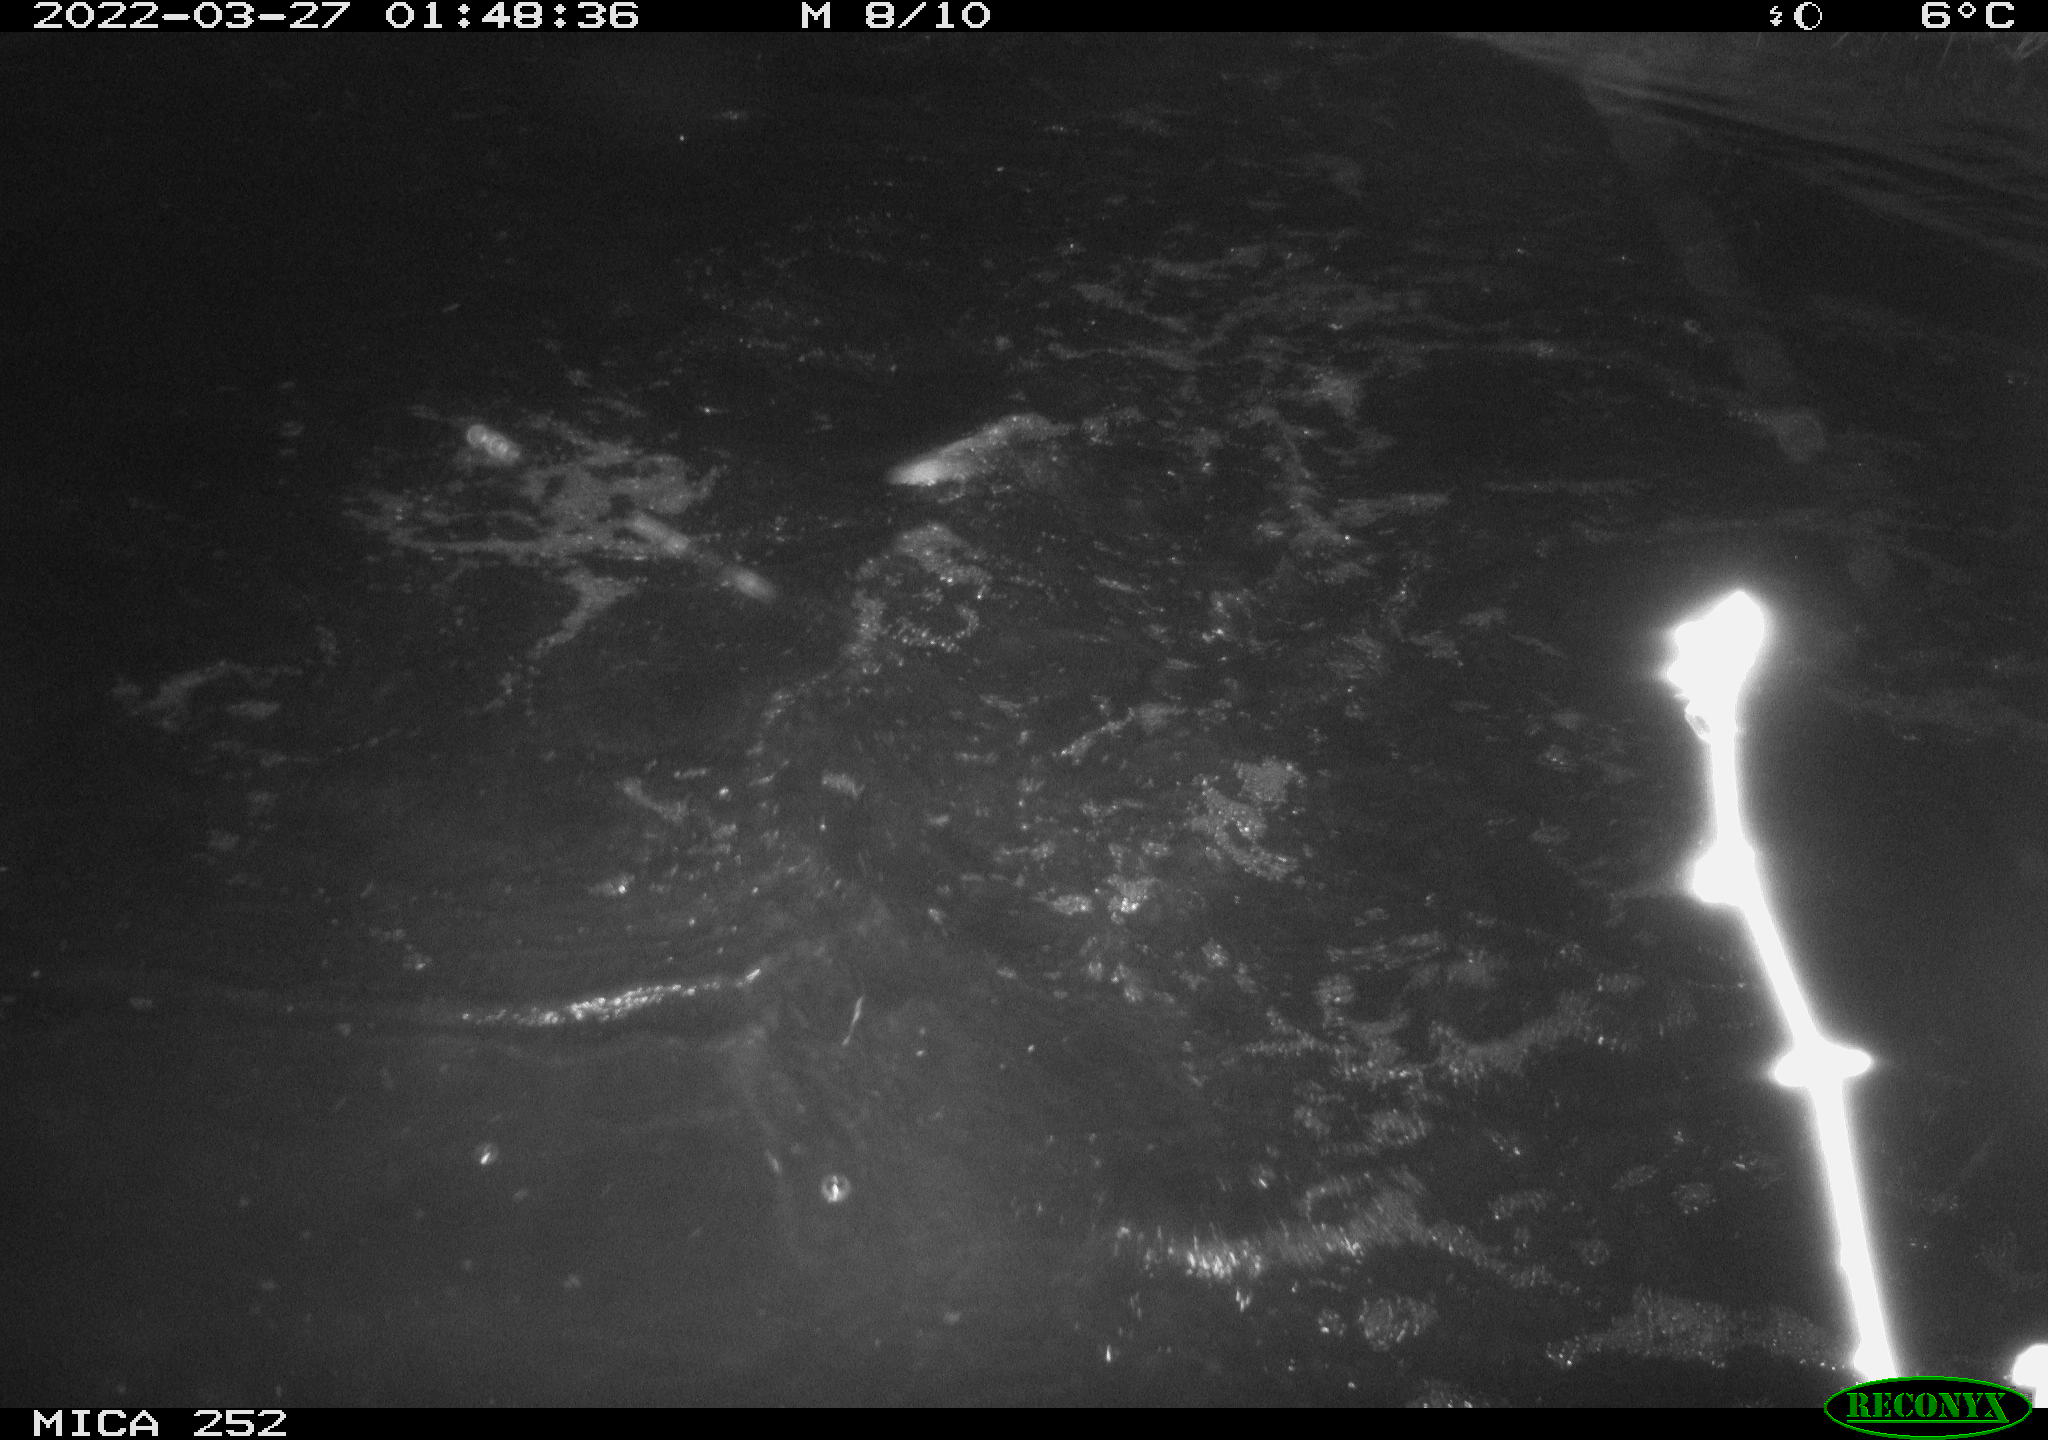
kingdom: Animalia
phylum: Chordata
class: Mammalia
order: Rodentia
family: Castoridae
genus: Castor
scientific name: Castor fiber
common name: Eurasian beaver
